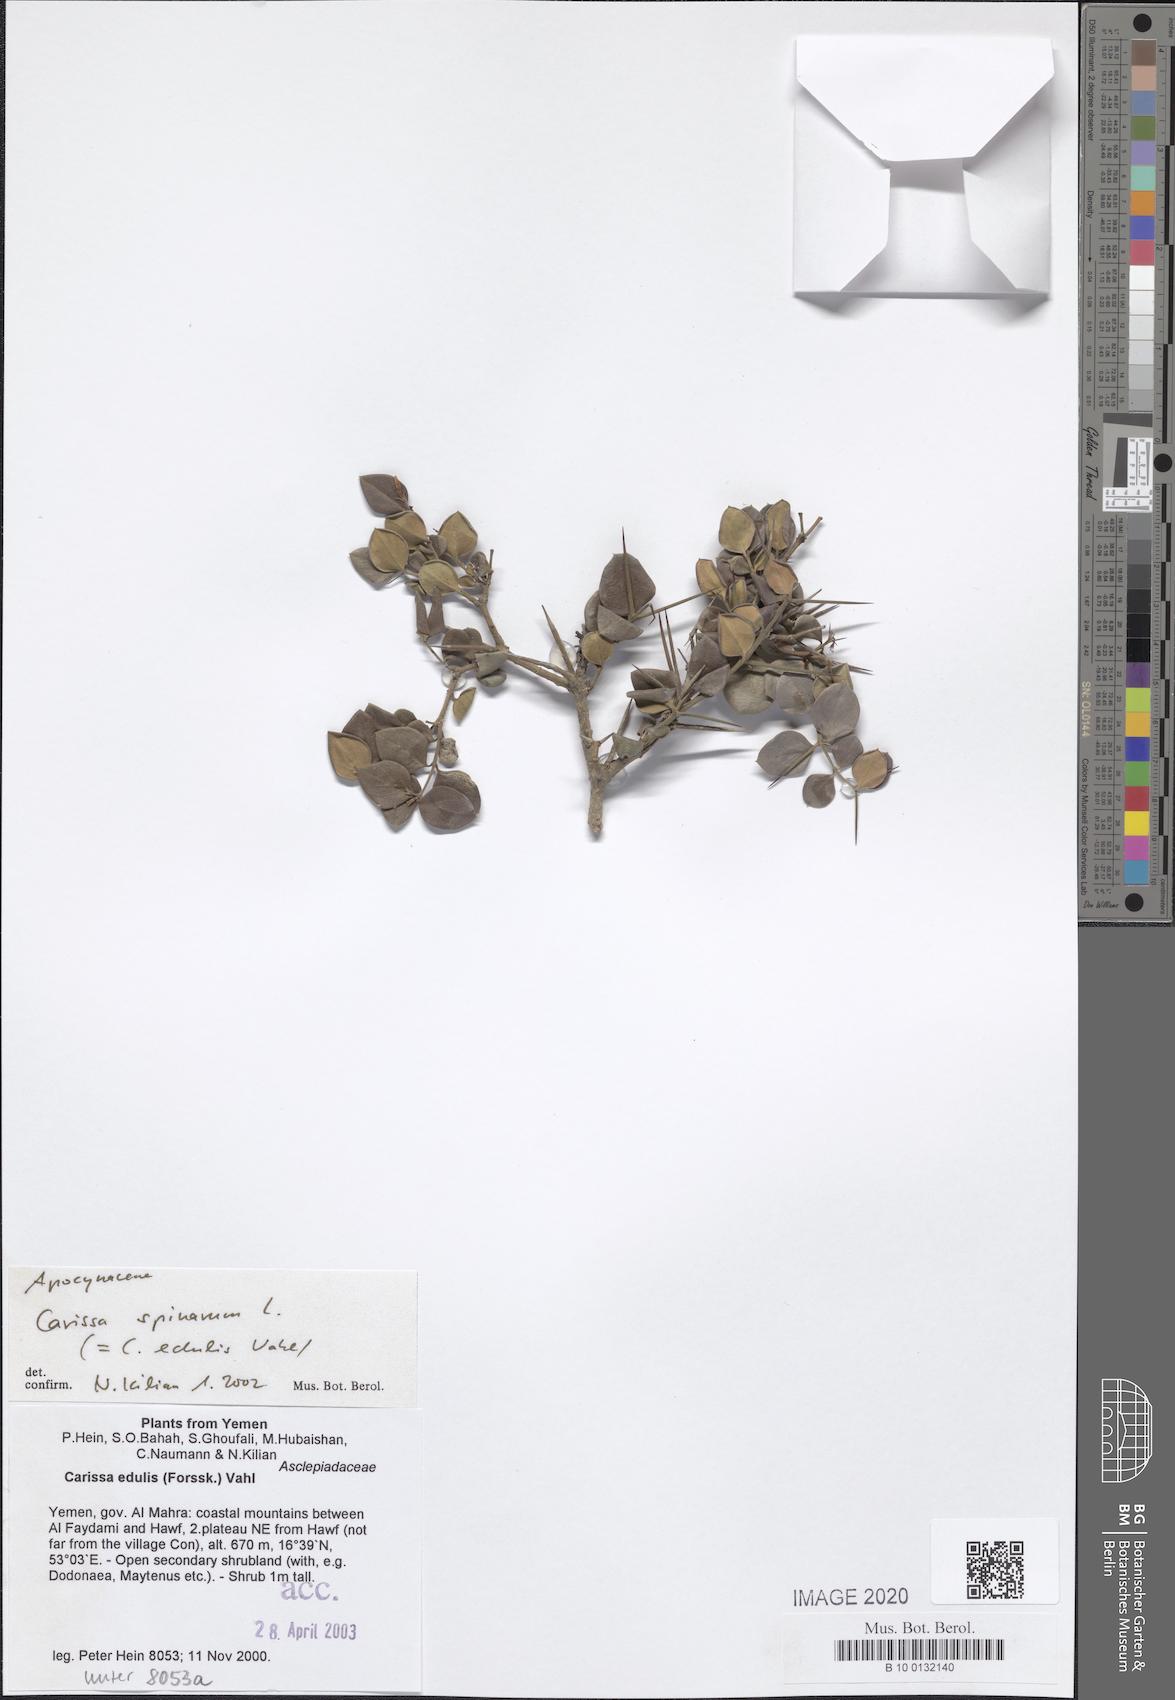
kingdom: Plantae
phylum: Tracheophyta
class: Magnoliopsida
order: Gentianales
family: Apocynaceae
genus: Carissa
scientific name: Carissa spinarum
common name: Egyptian carissa
